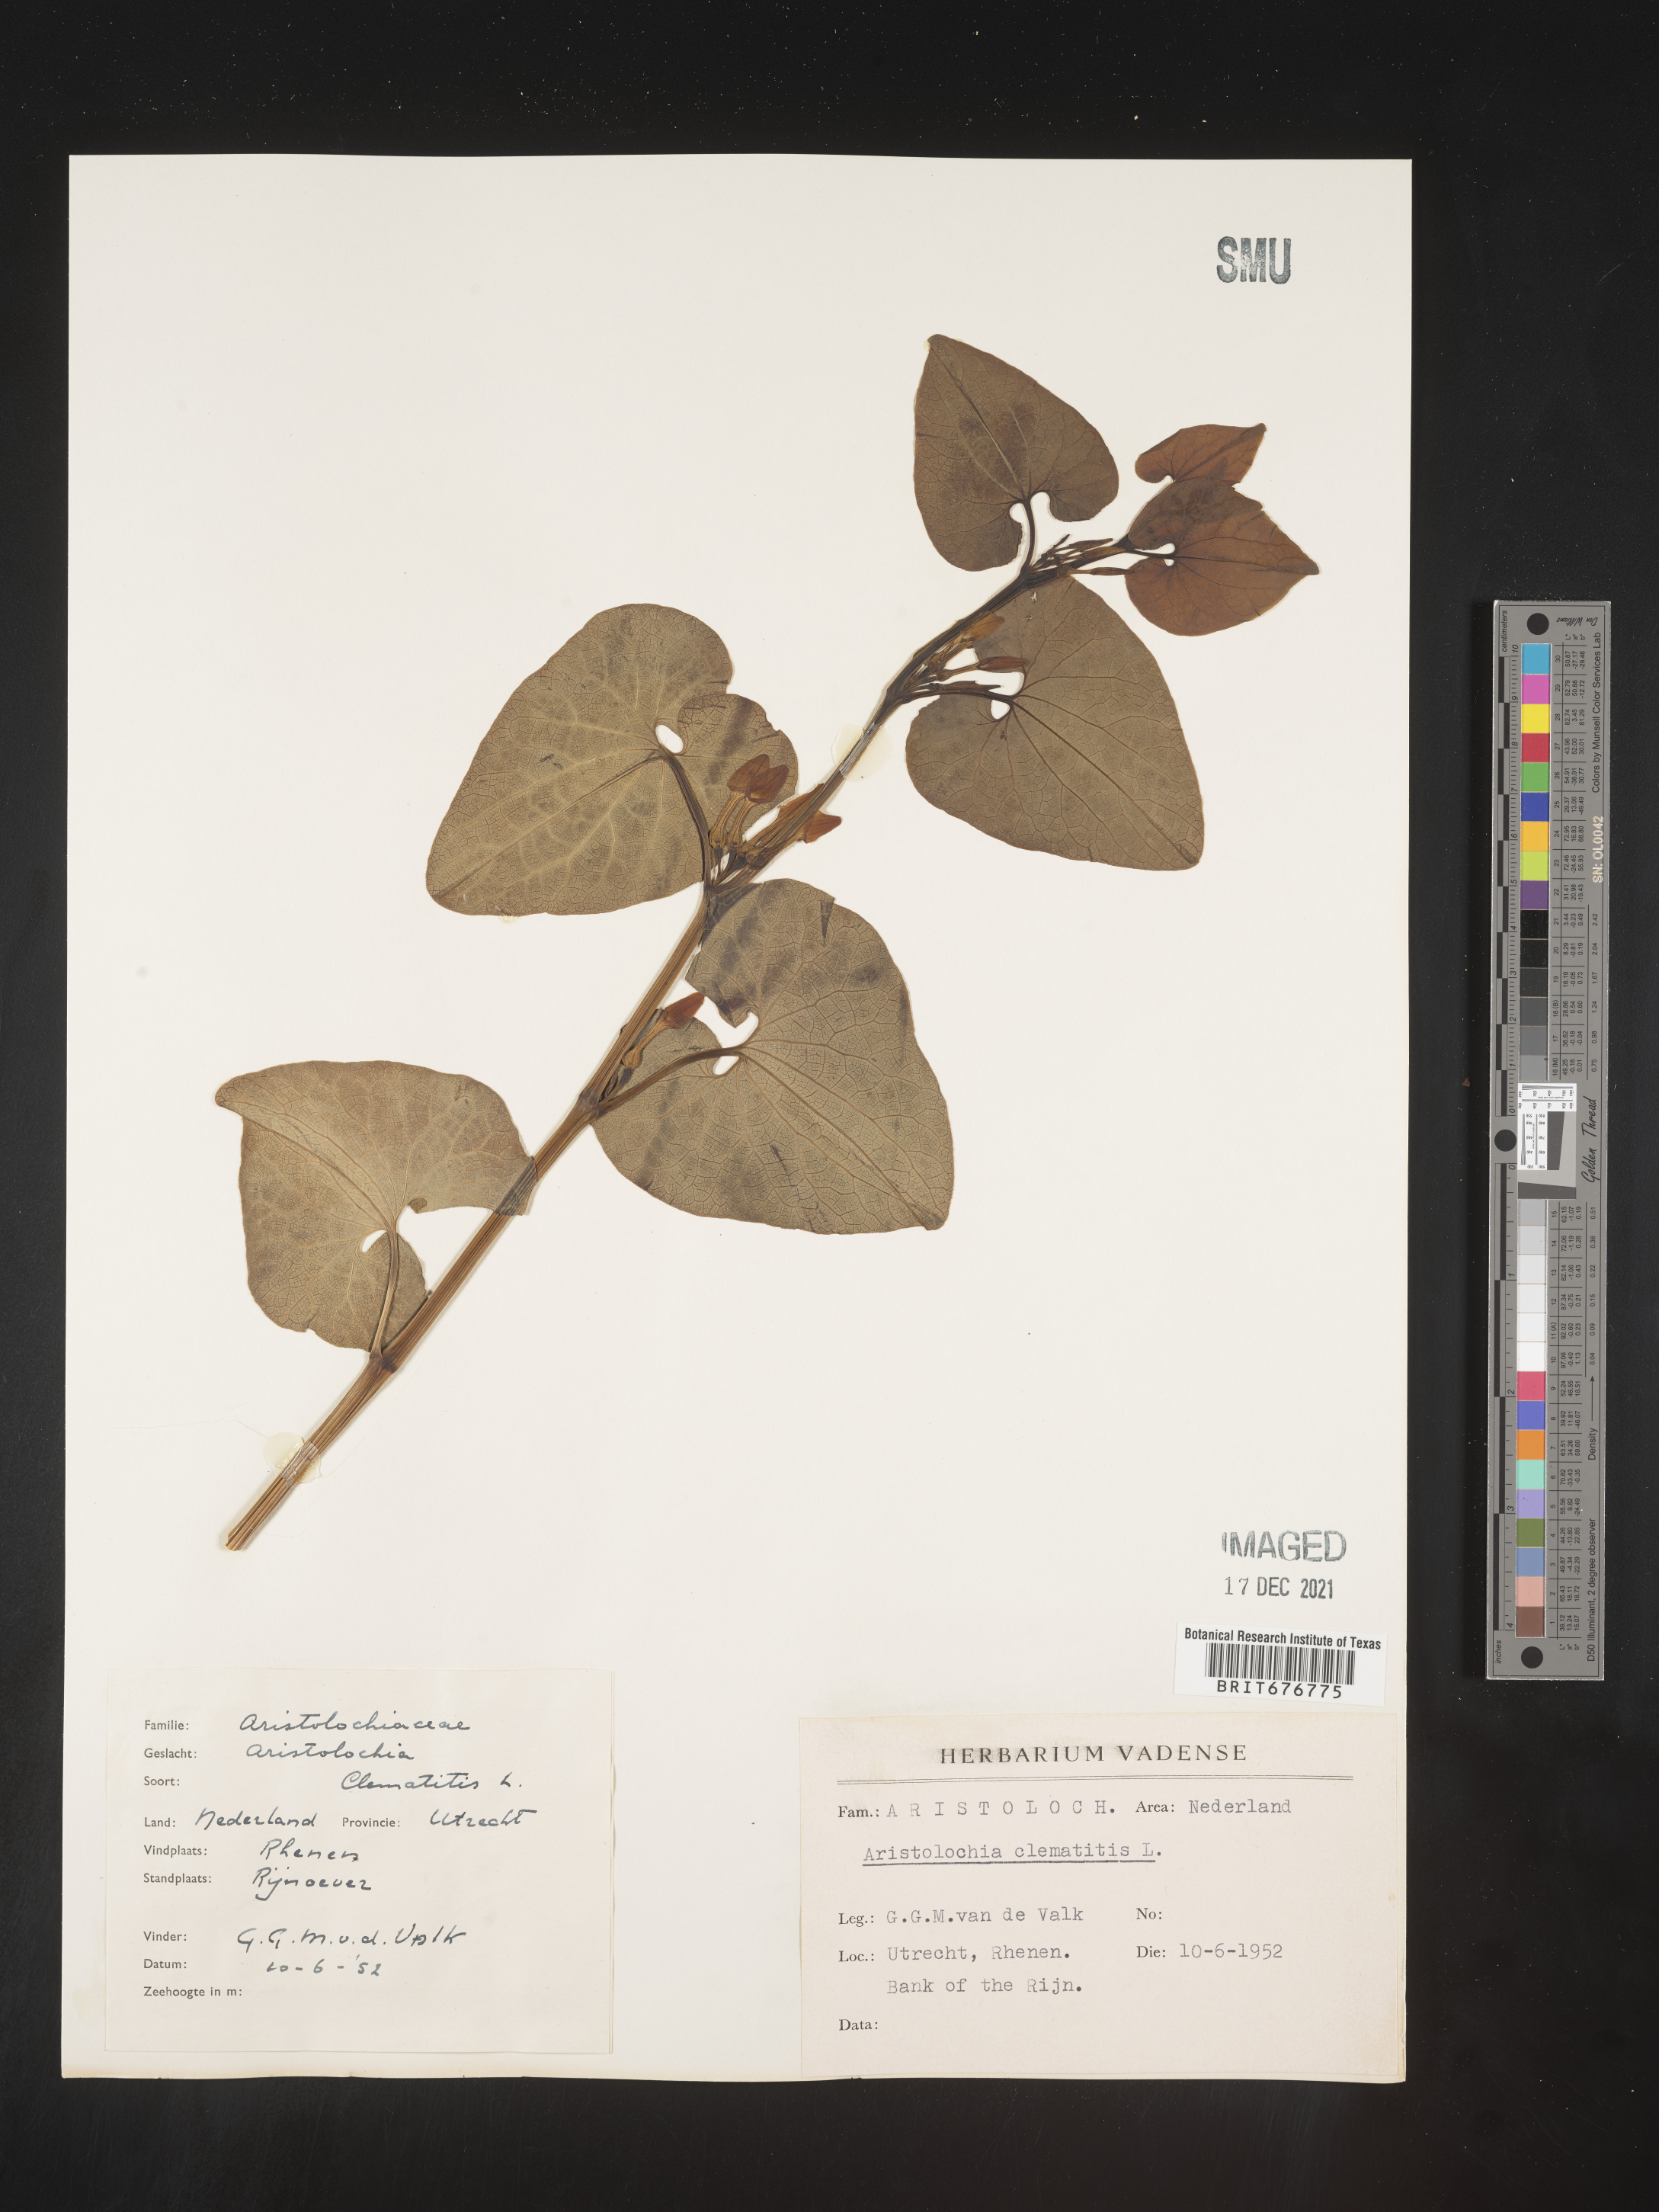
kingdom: Plantae
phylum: Tracheophyta
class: Magnoliopsida
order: Piperales
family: Aristolochiaceae
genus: Aristolochia
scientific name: Aristolochia
